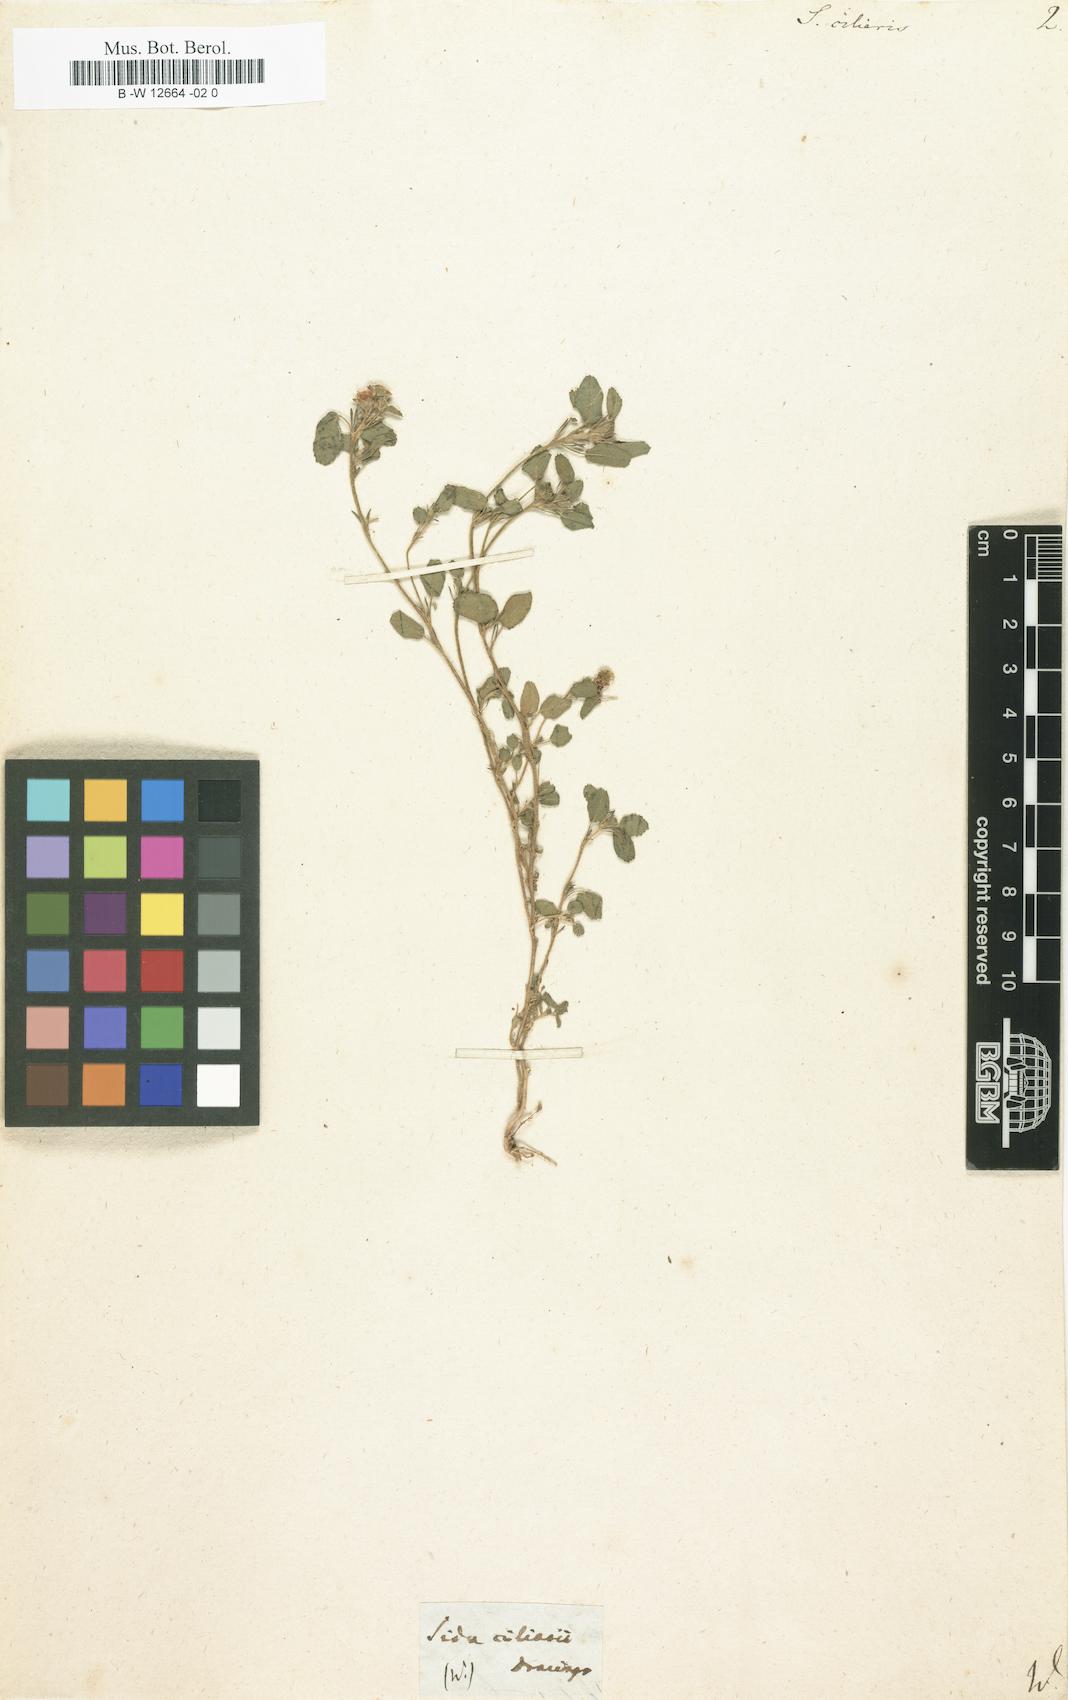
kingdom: Plantae
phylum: Tracheophyta
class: Magnoliopsida
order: Malvales
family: Malvaceae
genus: Sida
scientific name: Sida ciliaris
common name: Bracted fanpetals
